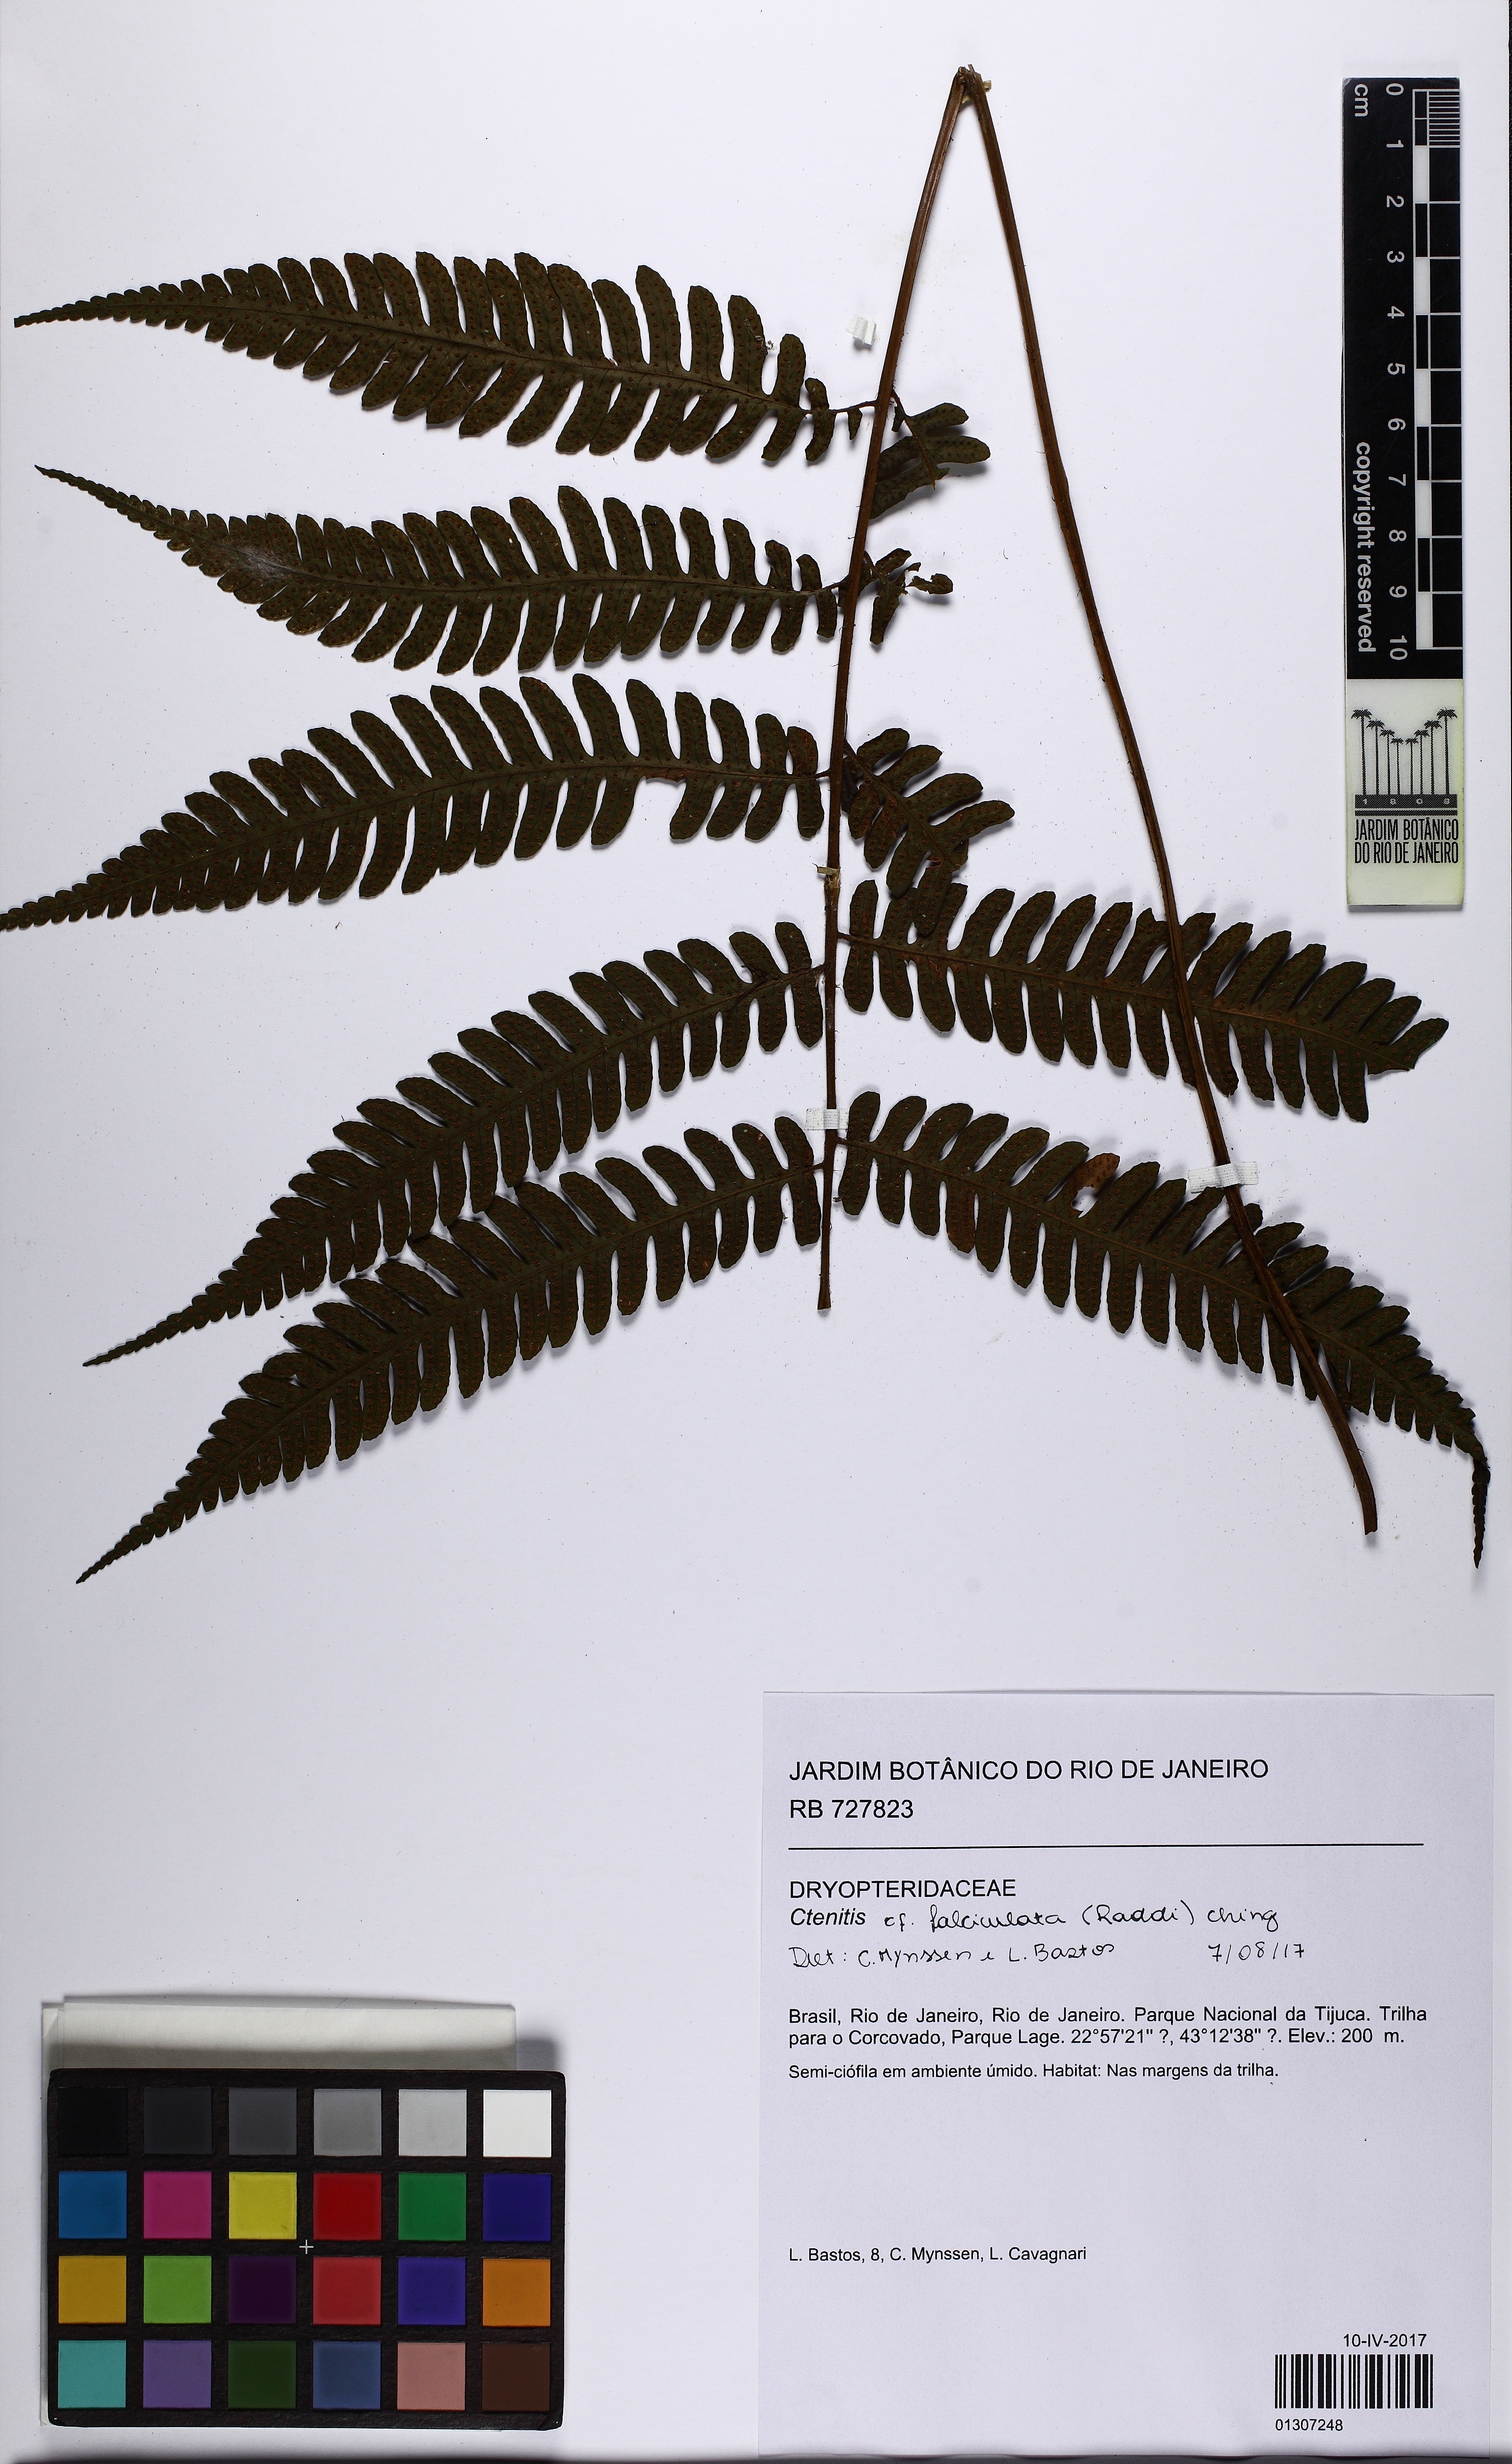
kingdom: Plantae
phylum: Tracheophyta
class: Polypodiopsida
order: Polypodiales
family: Dryopteridaceae
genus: Ctenitis
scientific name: Ctenitis falciculata
